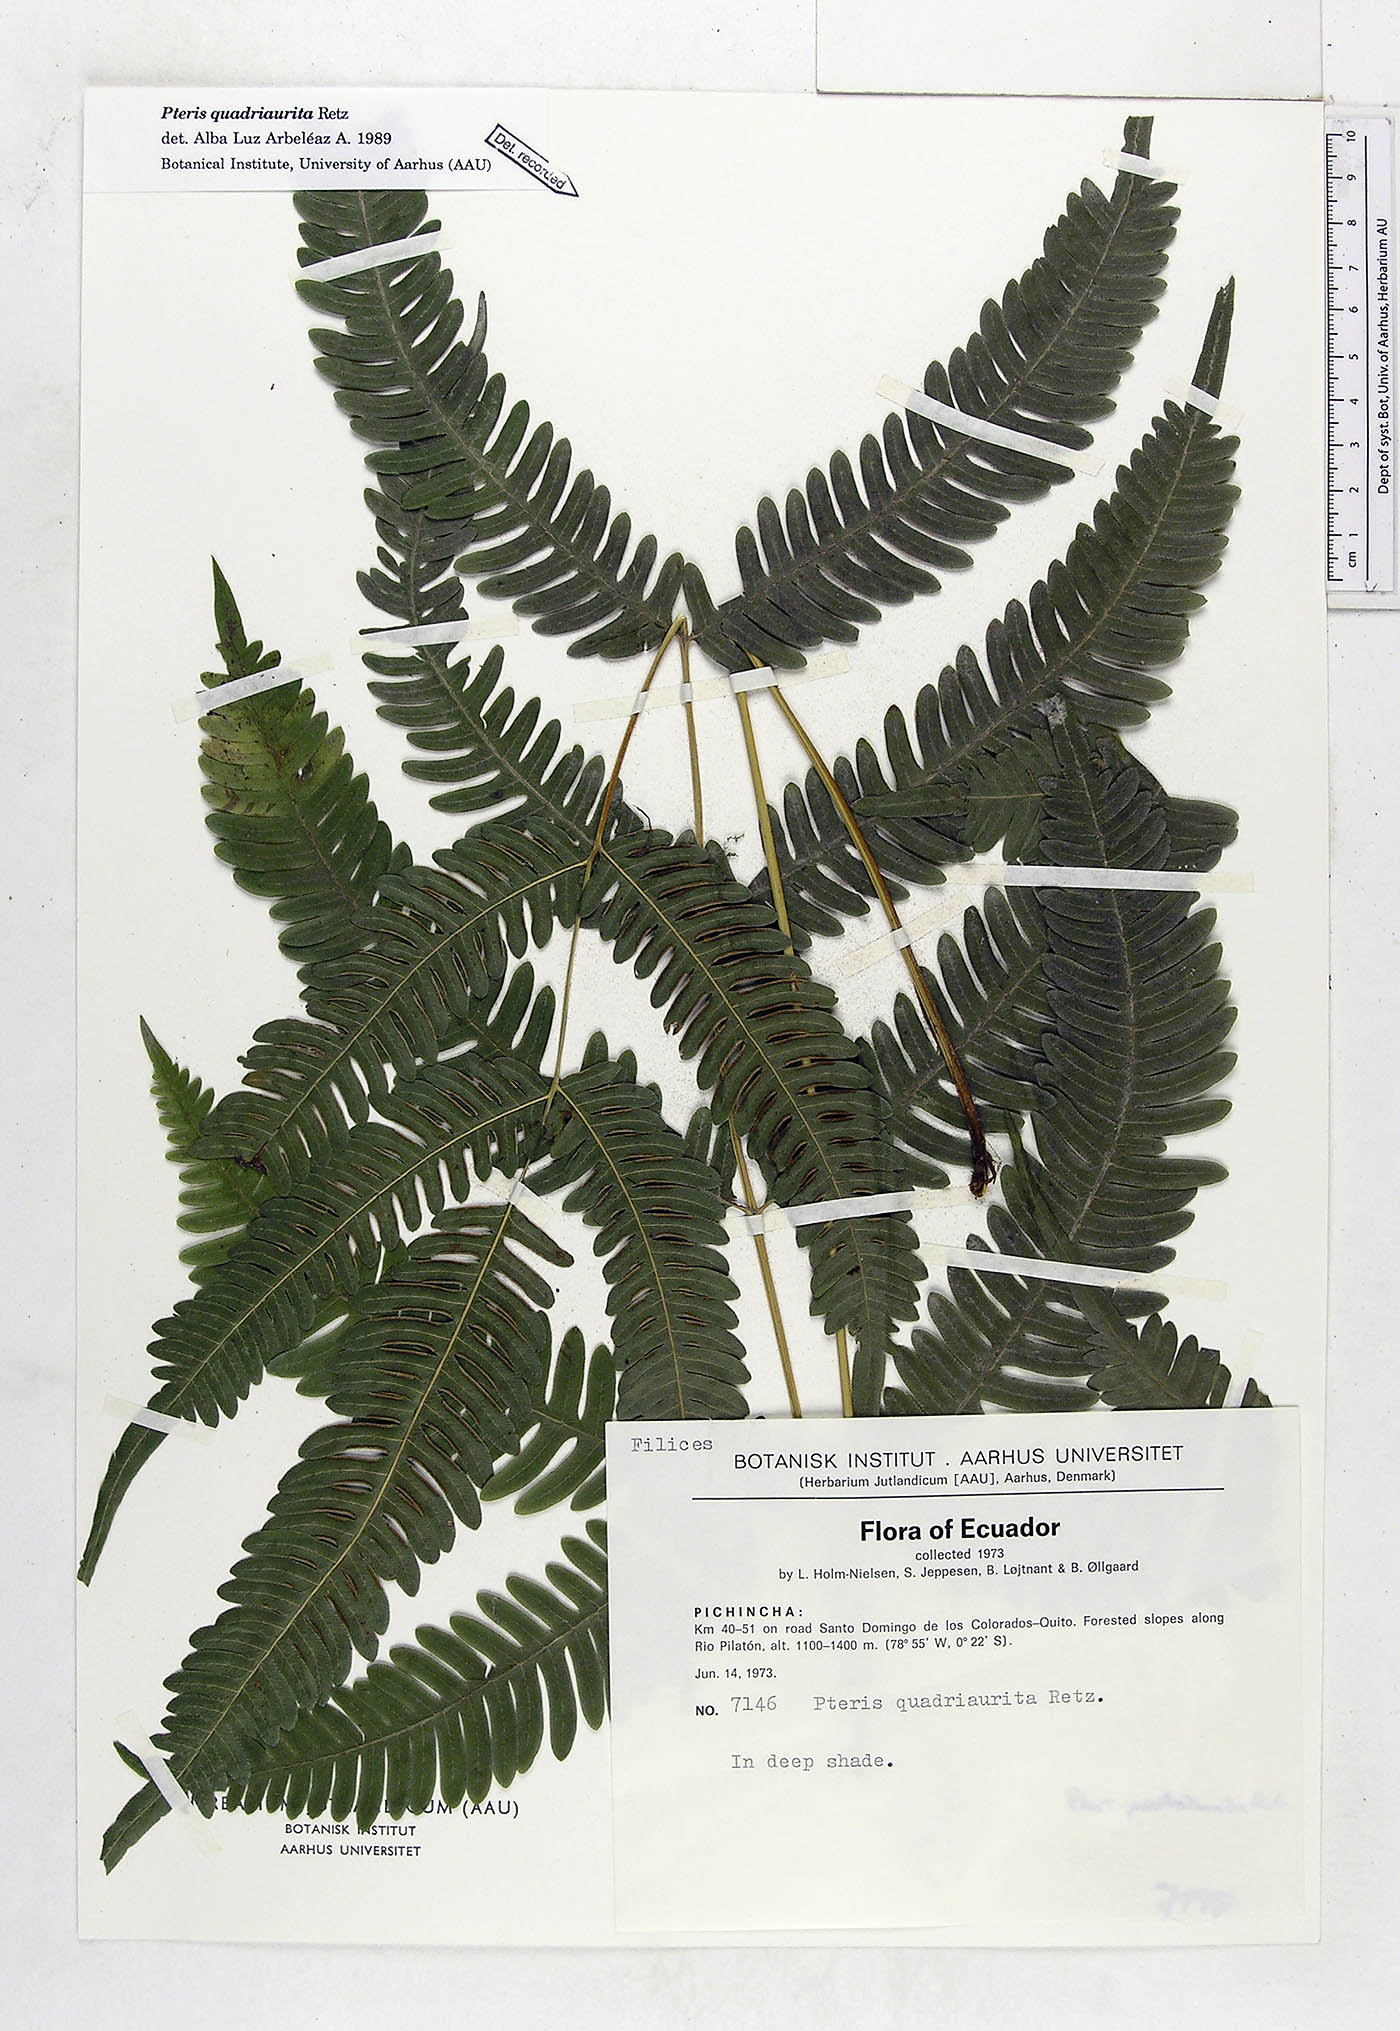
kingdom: Plantae
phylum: Tracheophyta
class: Polypodiopsida
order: Polypodiales
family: Pteridaceae
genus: Pteris
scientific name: Pteris quadriaurita
